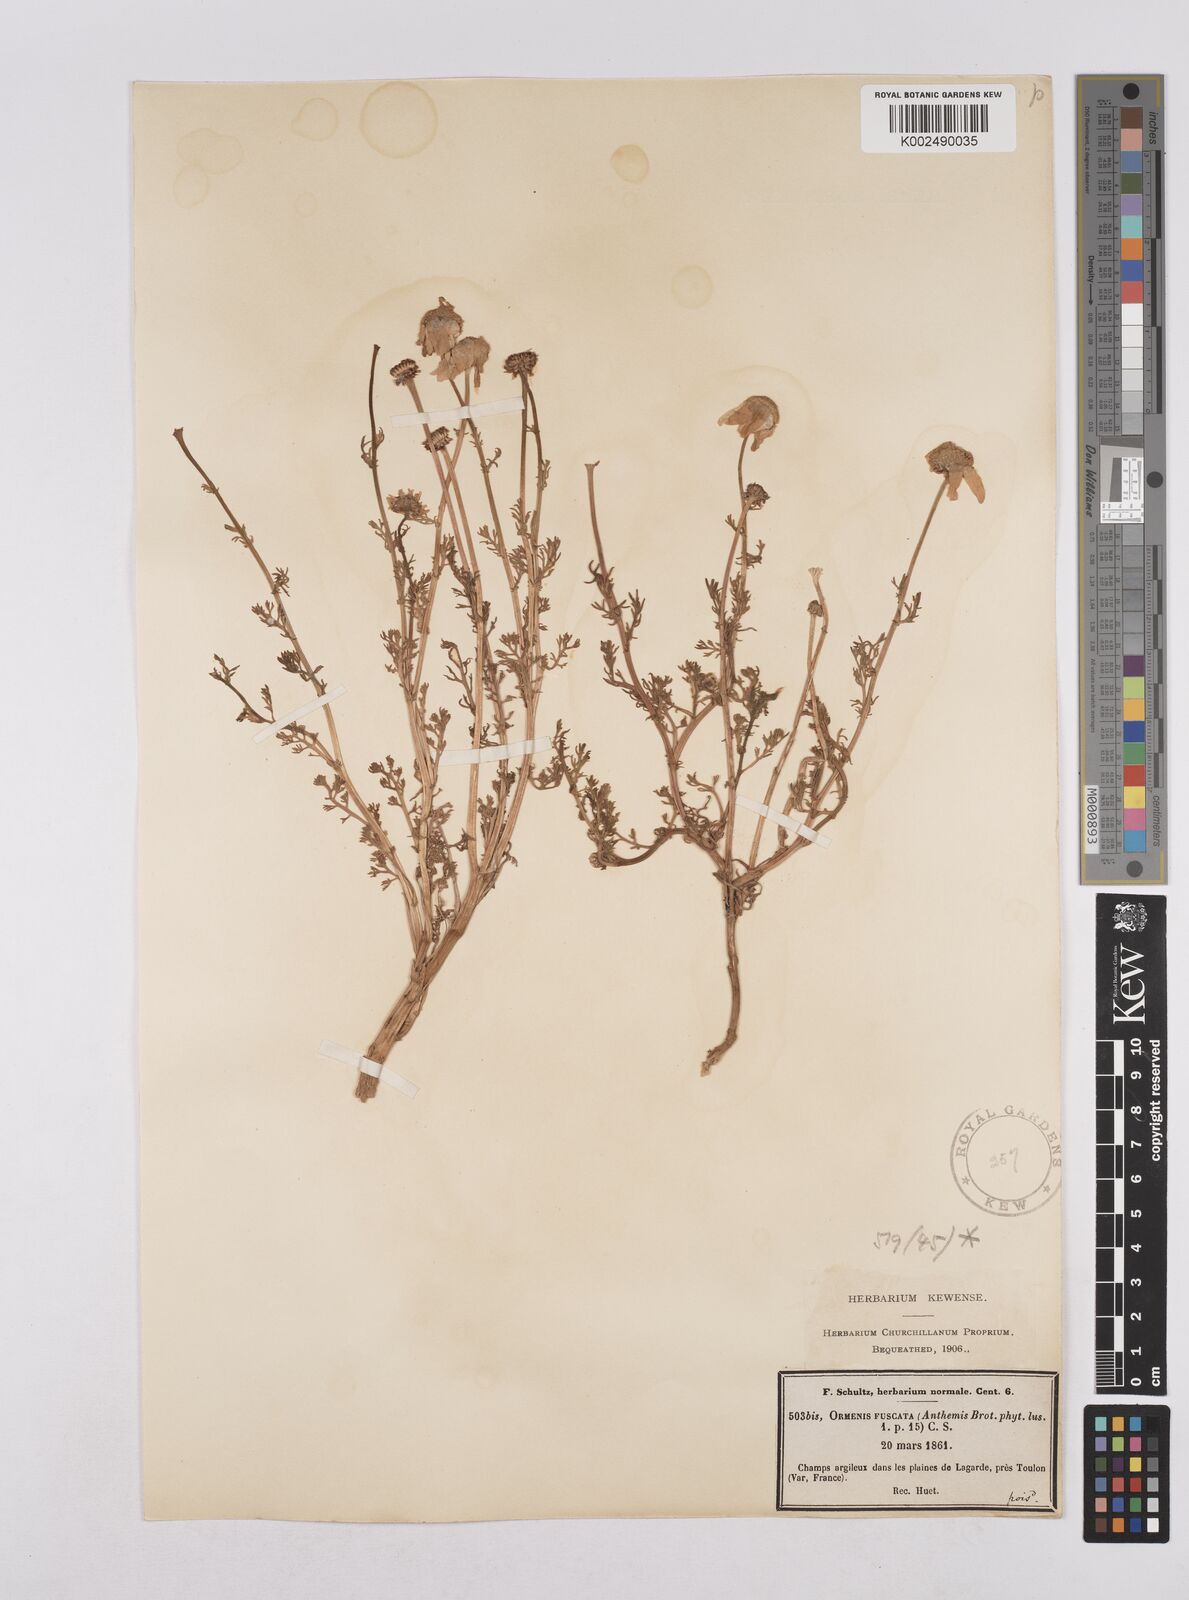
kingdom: Plantae
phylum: Tracheophyta
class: Magnoliopsida
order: Asterales
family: Asteraceae
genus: Chamaemelum
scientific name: Chamaemelum fuscatum
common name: Chamomile
